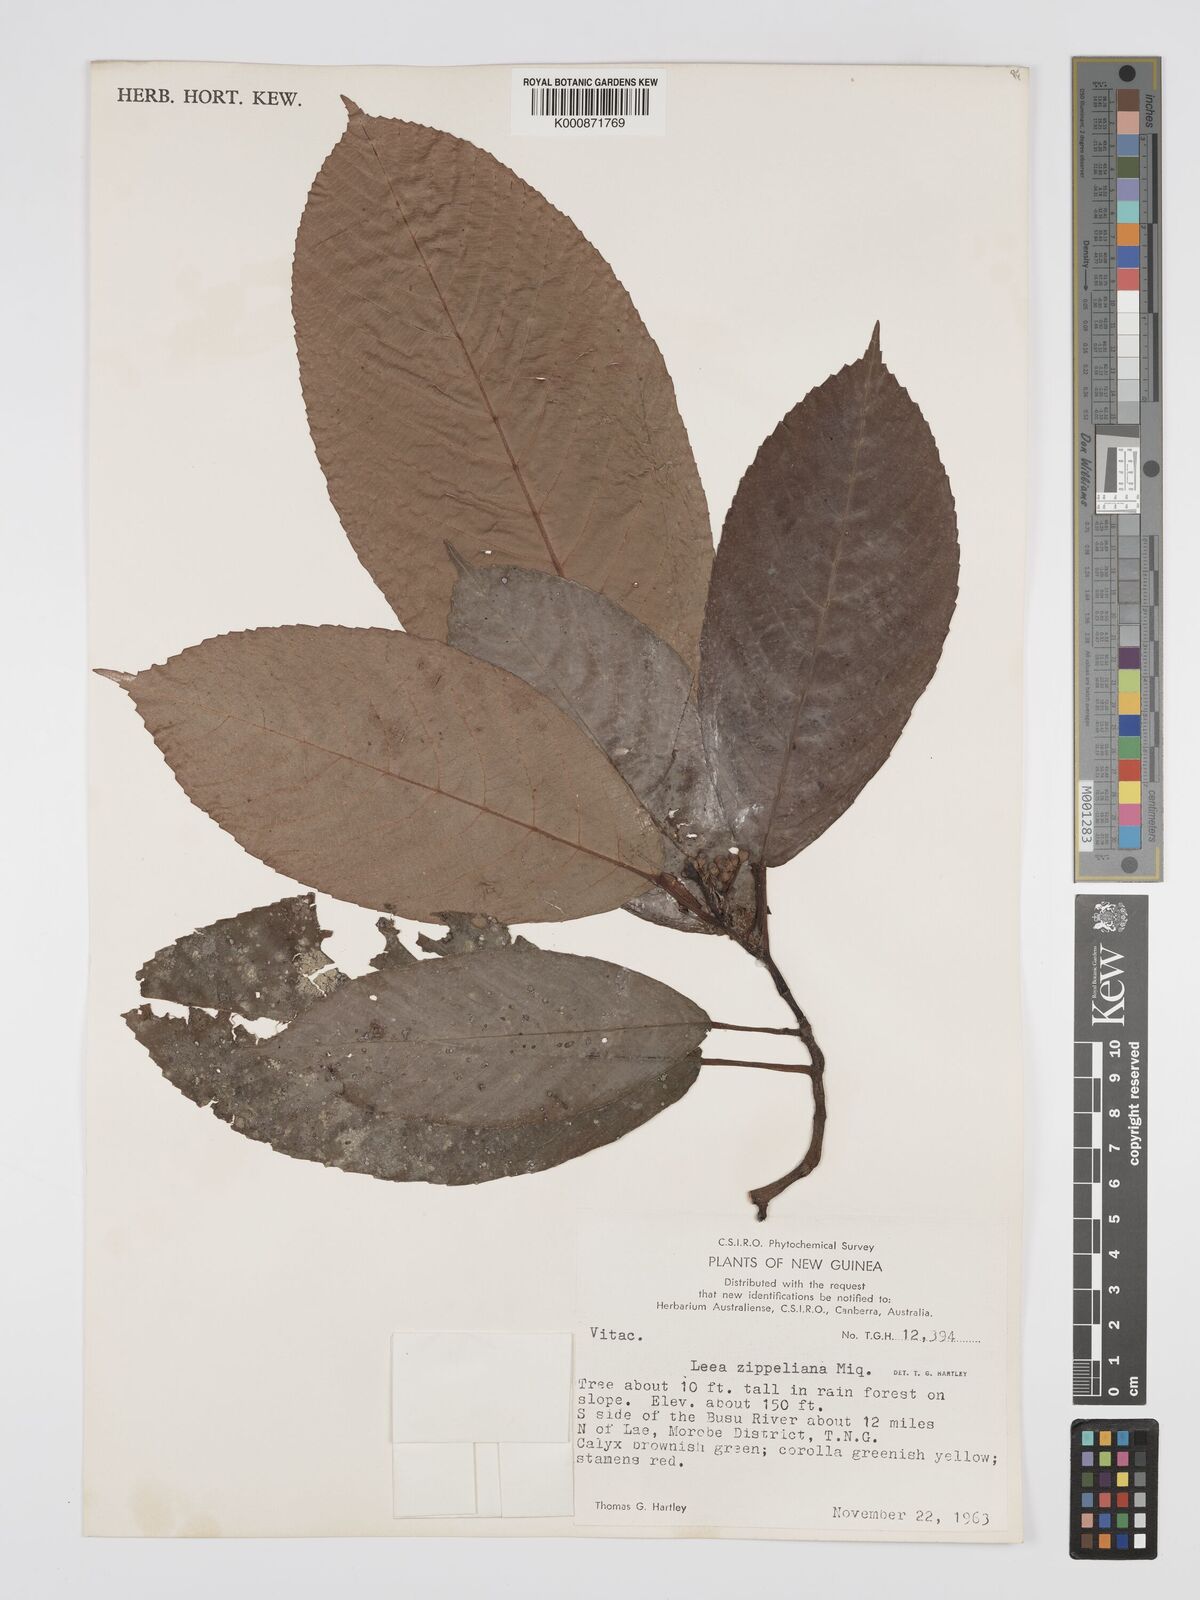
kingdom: Plantae
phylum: Tracheophyta
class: Magnoliopsida
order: Vitales
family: Vitaceae
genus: Leea
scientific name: Leea zippeliana
